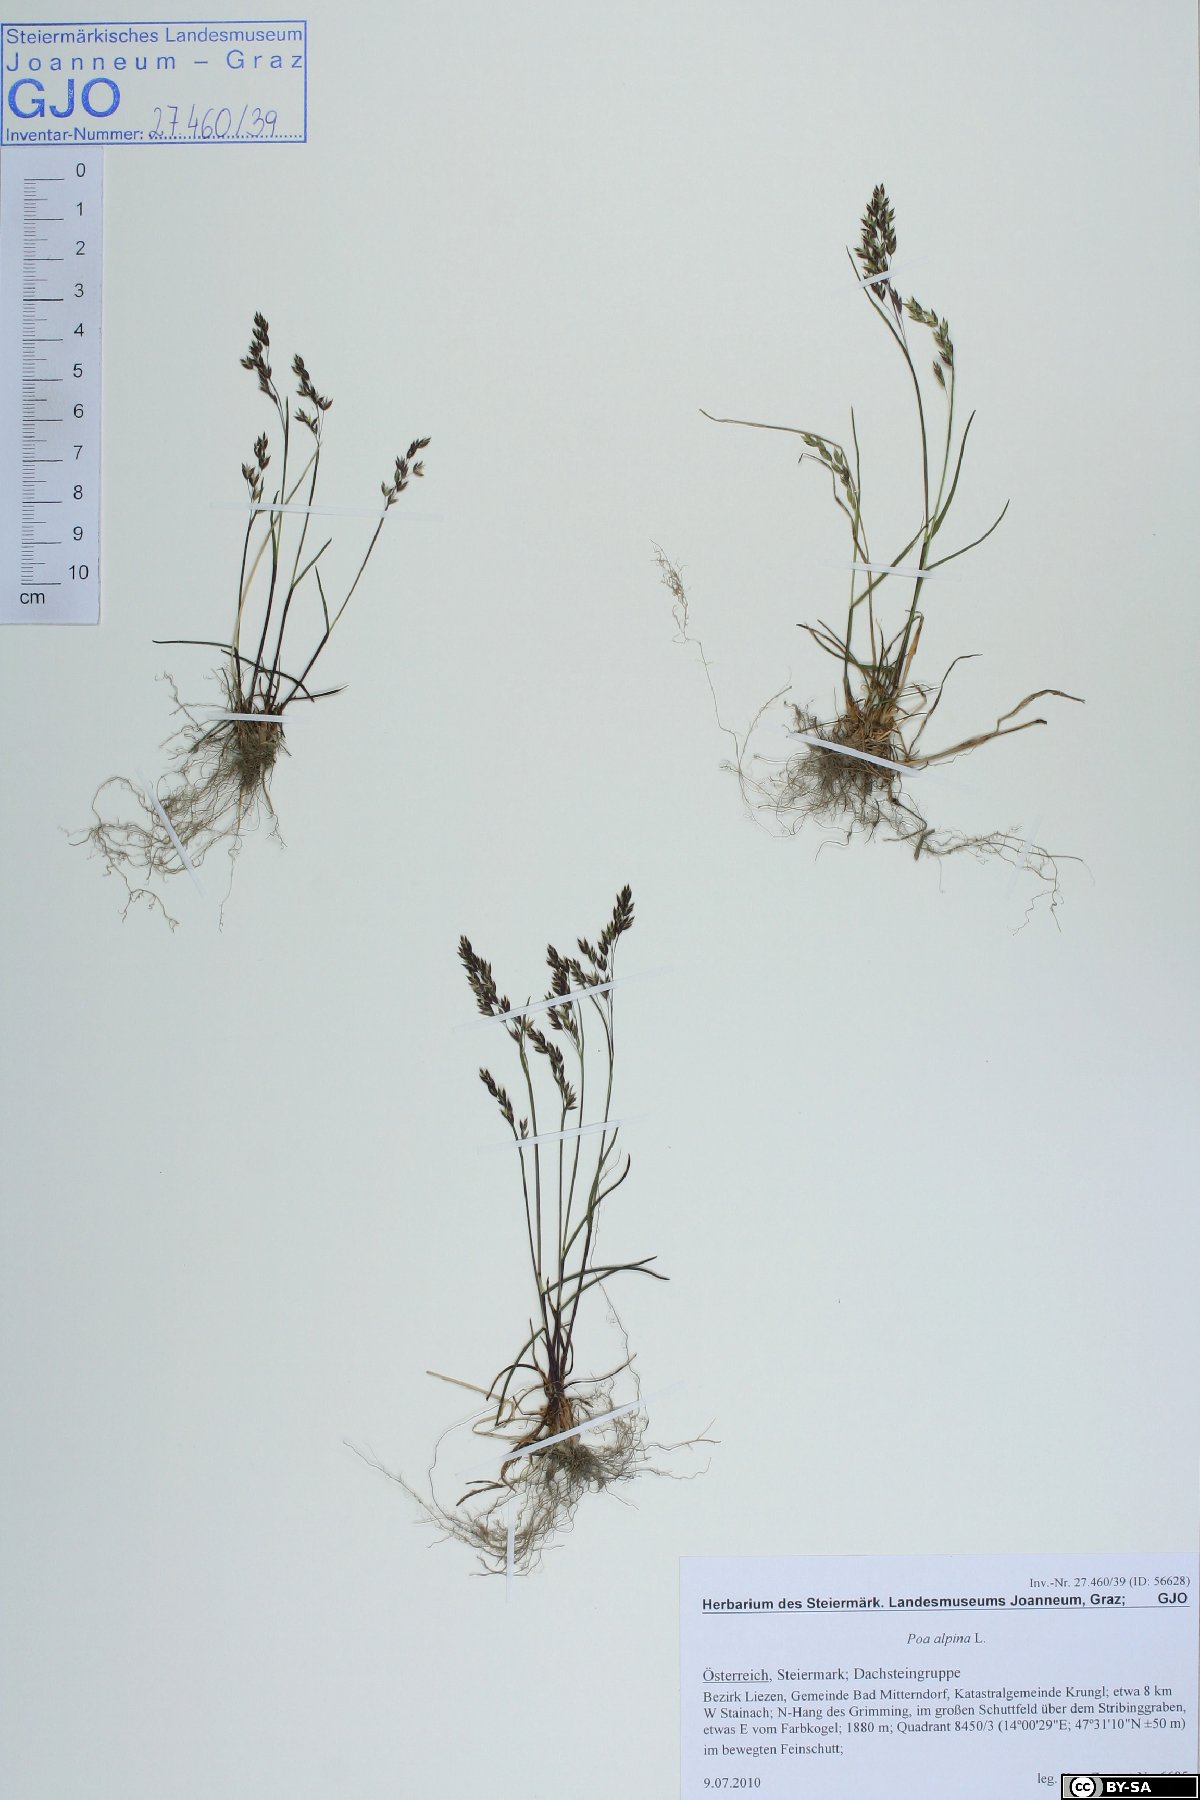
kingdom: Plantae
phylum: Tracheophyta
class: Liliopsida
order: Poales
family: Poaceae
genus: Poa
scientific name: Poa alpina
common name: Alpine bluegrass
